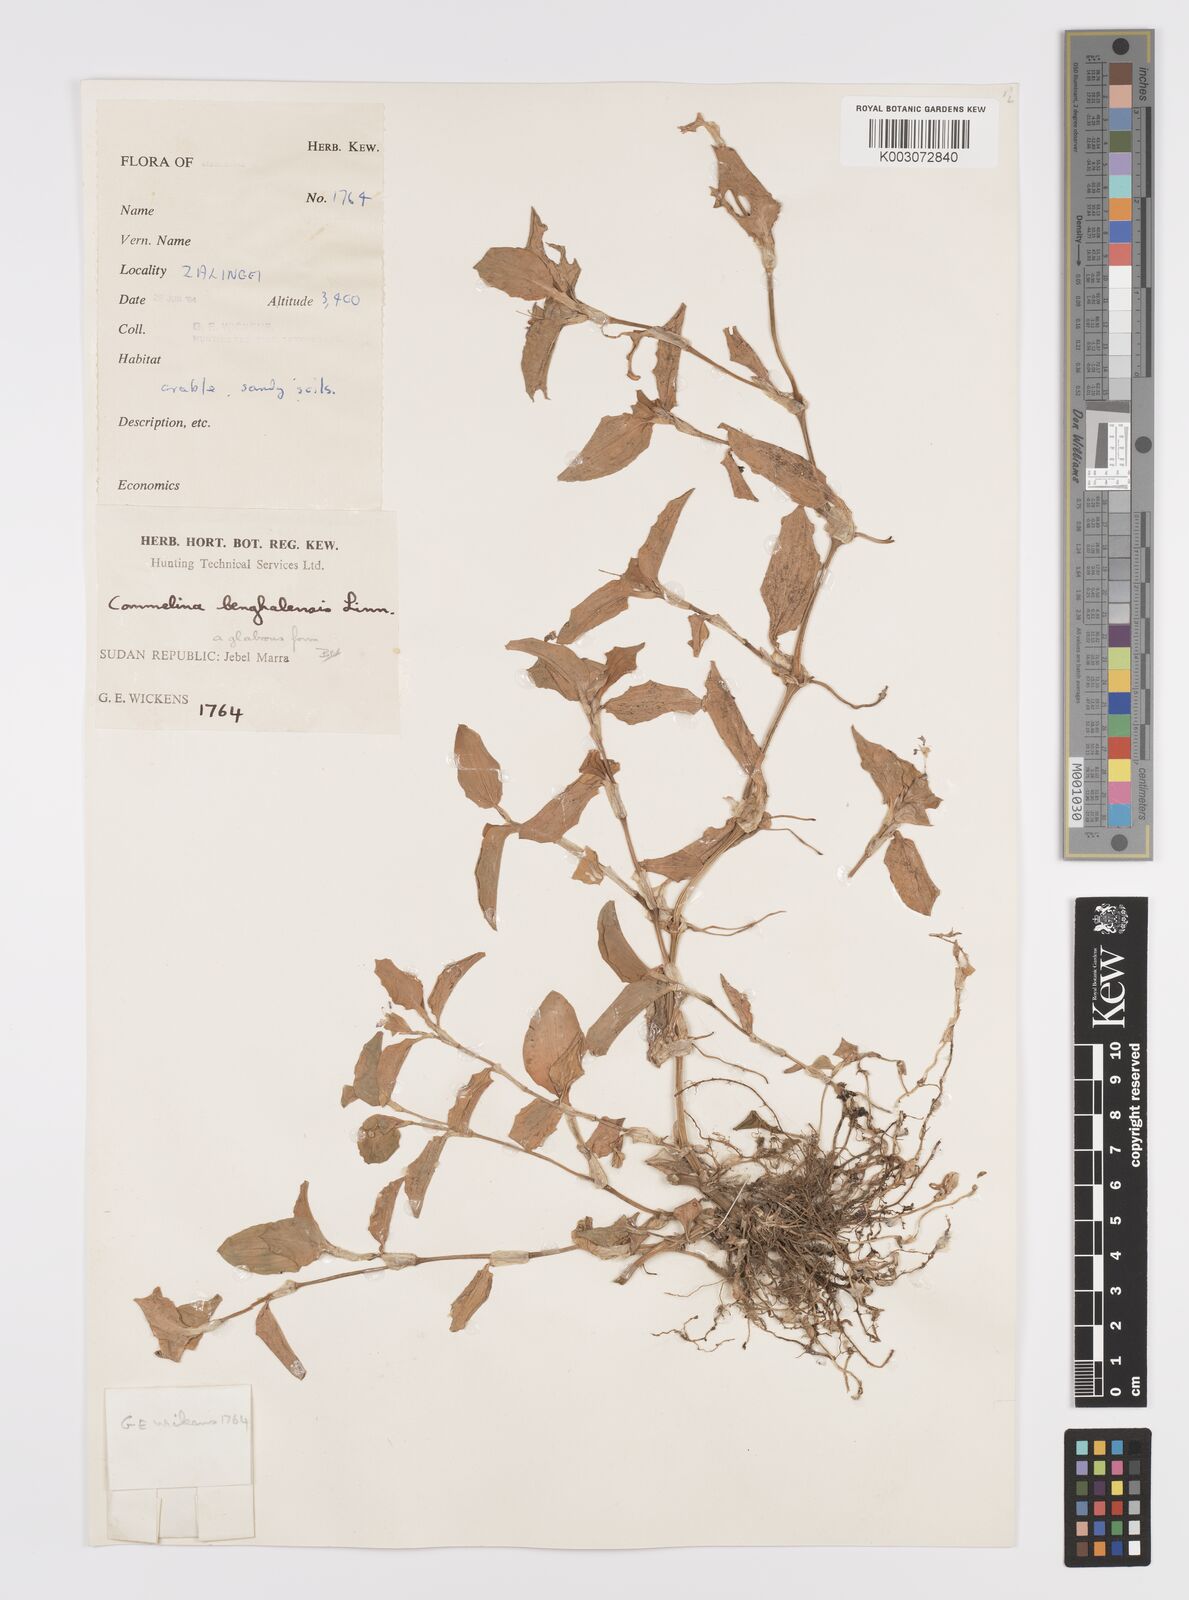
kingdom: Plantae
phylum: Tracheophyta
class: Liliopsida
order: Commelinales
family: Commelinaceae
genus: Commelina
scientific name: Commelina benghalensis
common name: Jio
